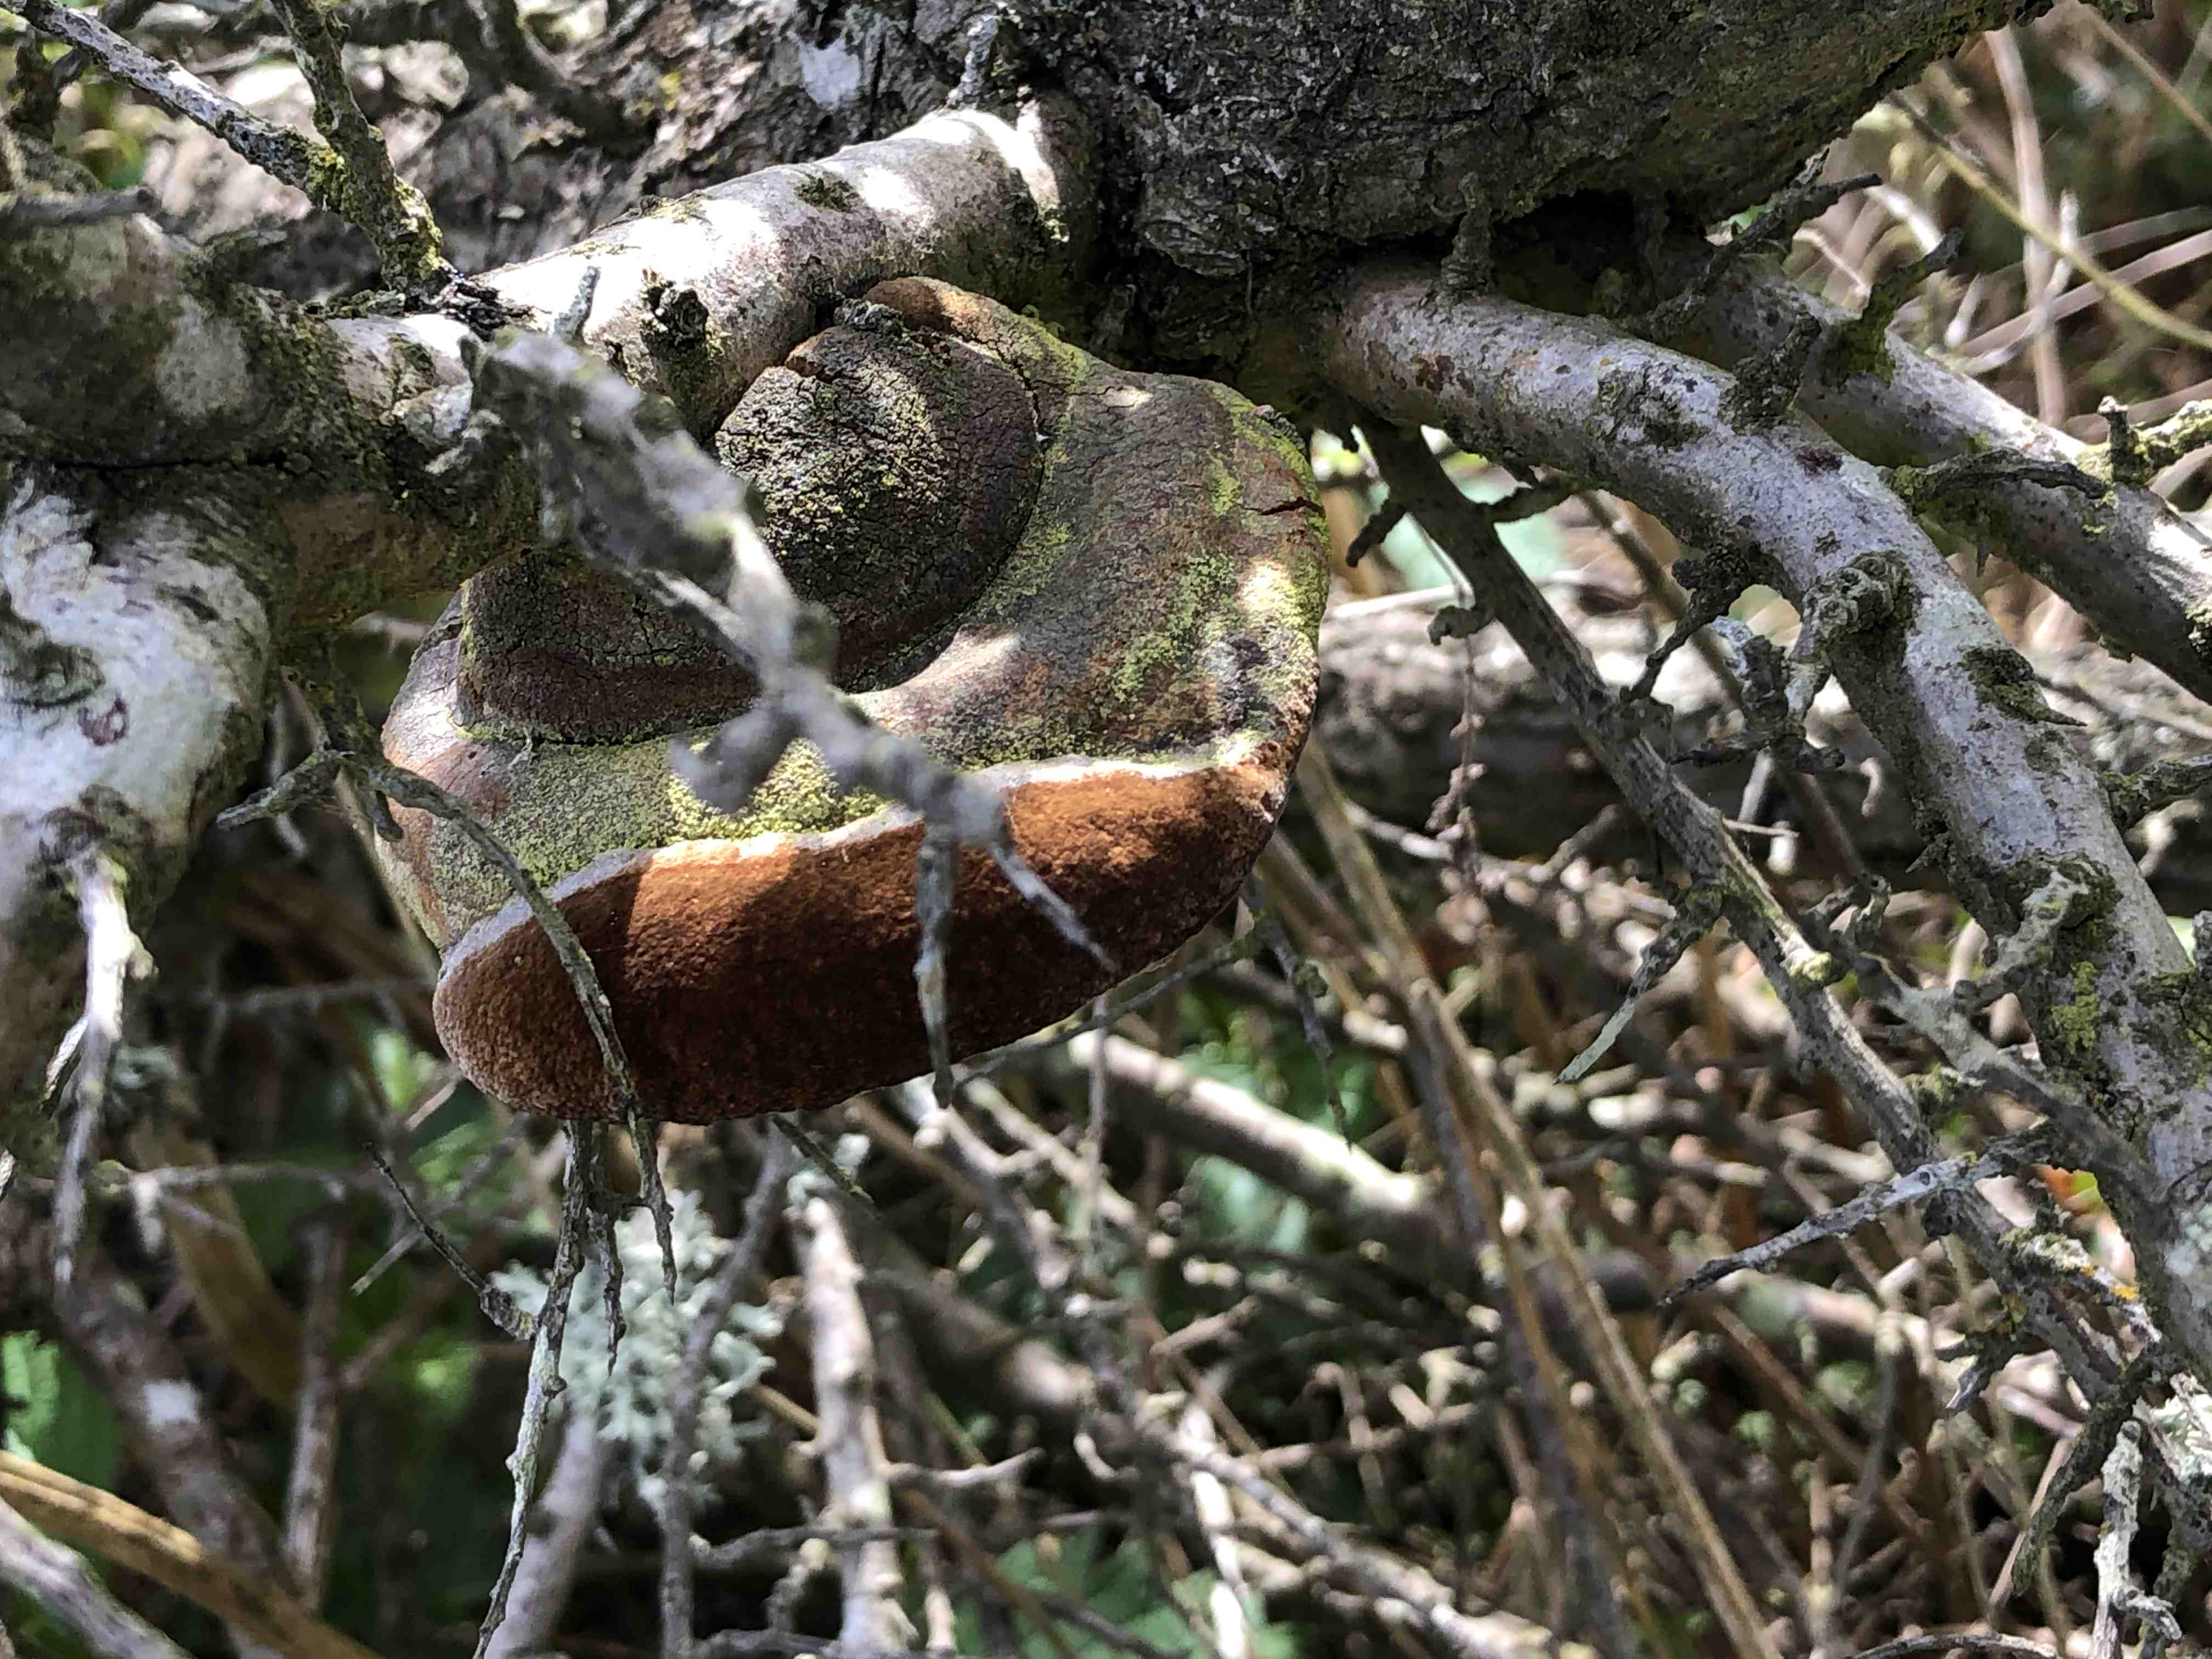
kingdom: Fungi
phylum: Basidiomycota
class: Agaricomycetes
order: Hymenochaetales
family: Hymenochaetaceae
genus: Fomitiporia
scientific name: Fomitiporia hippophaeicola
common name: havtorn-ildporesvamp
